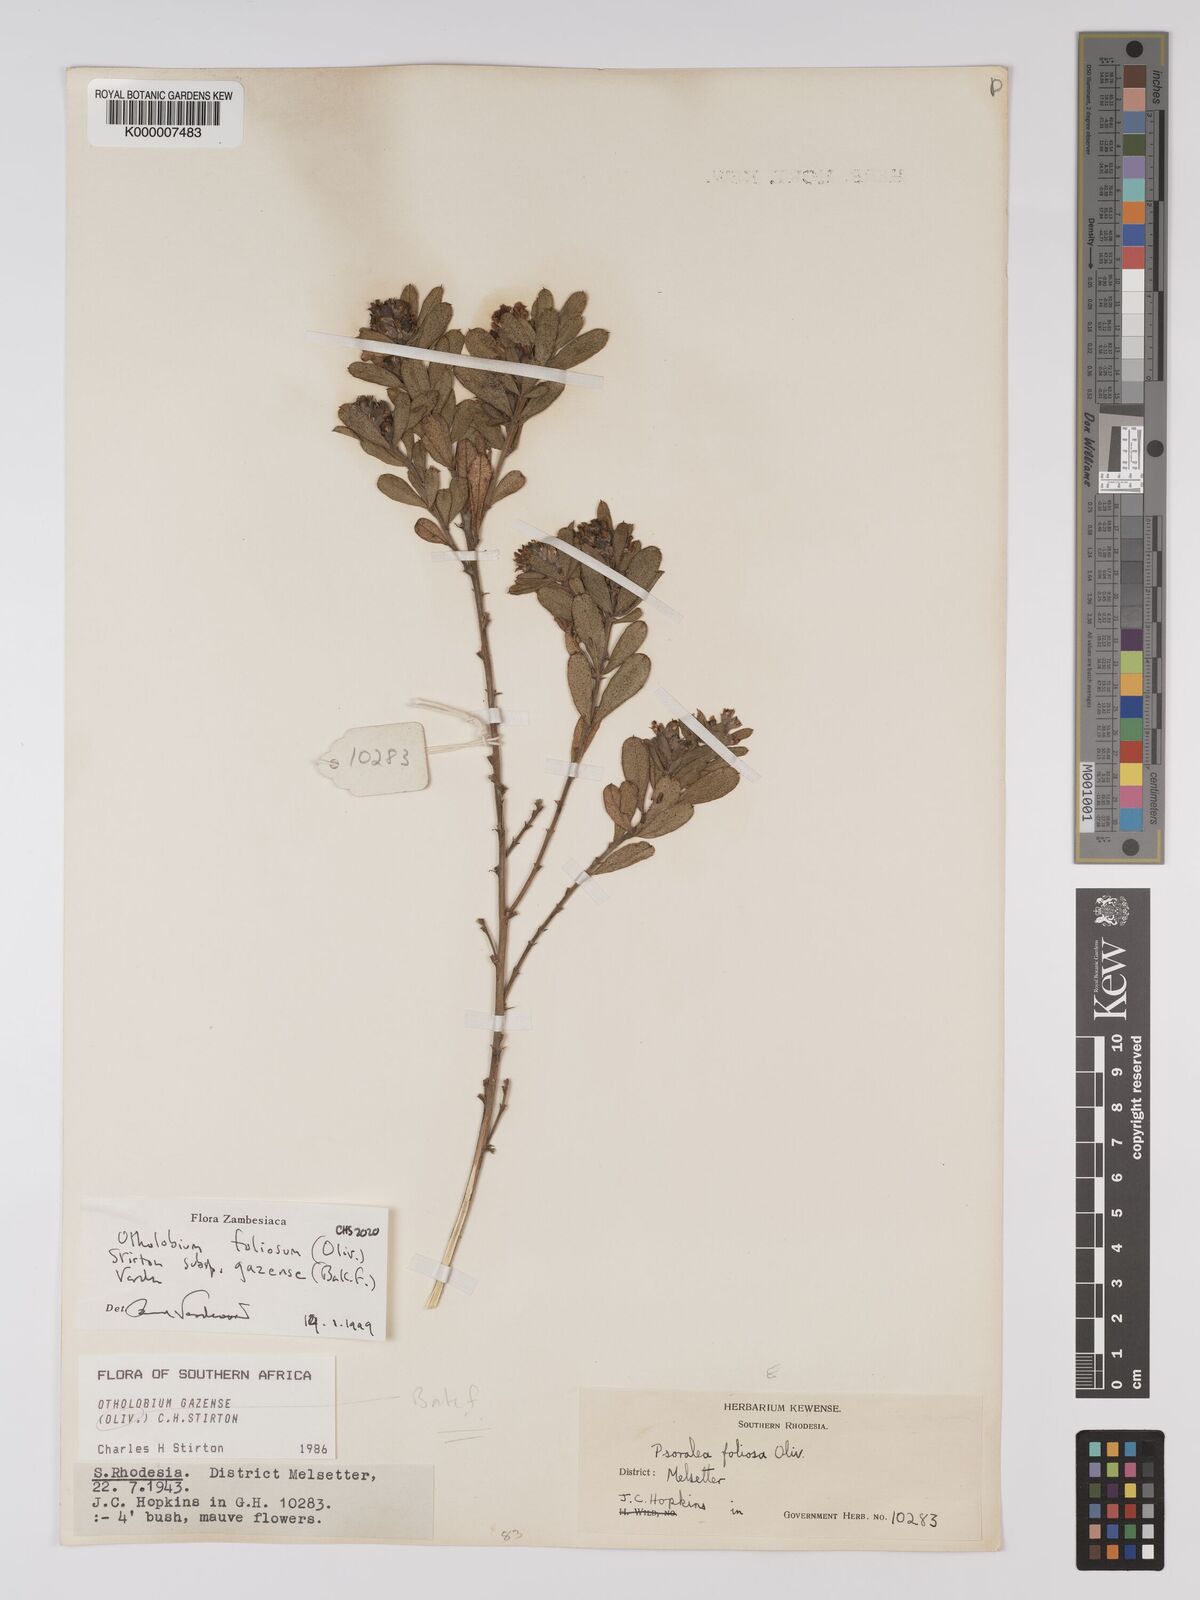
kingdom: Plantae
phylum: Tracheophyta
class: Magnoliopsida
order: Fabales
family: Fabaceae
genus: Psoralea
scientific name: Psoralea foliosa
